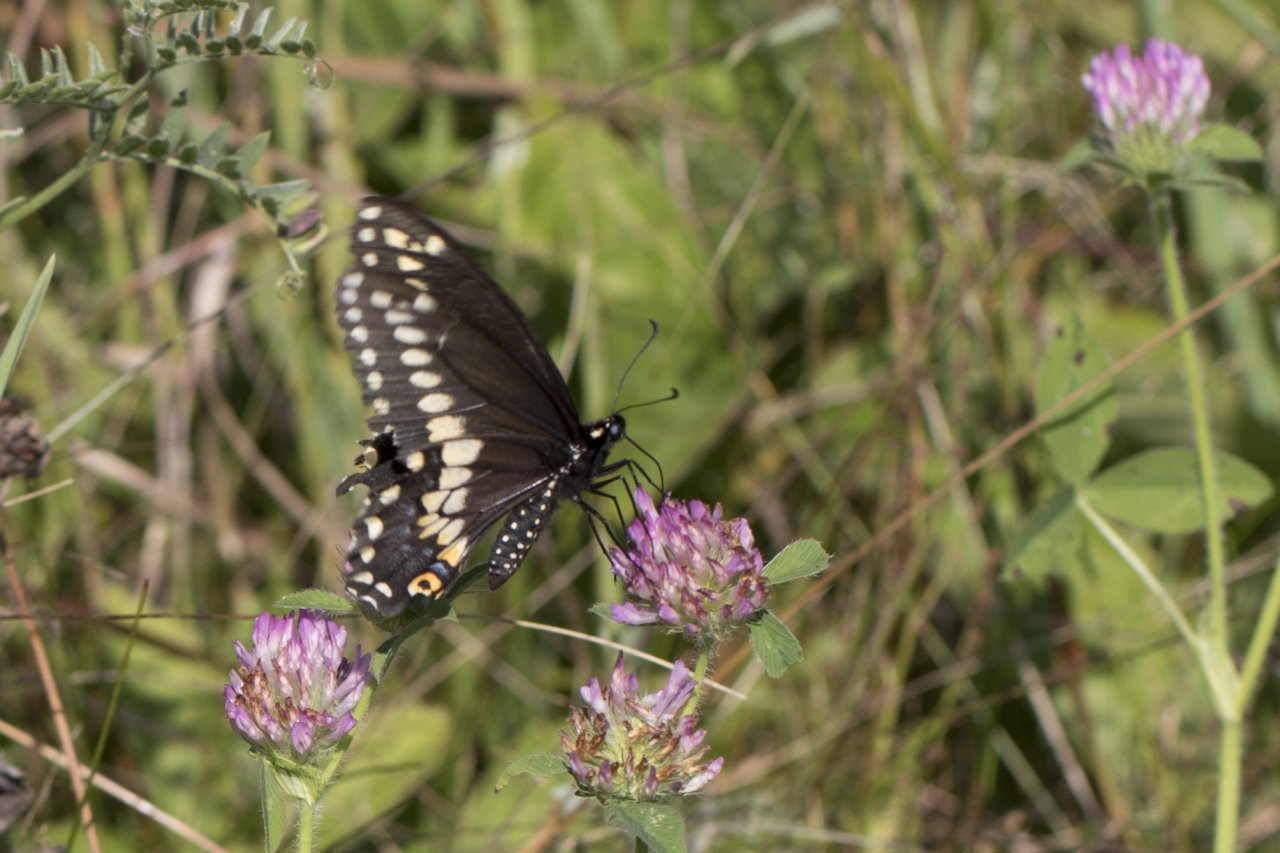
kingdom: Animalia
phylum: Arthropoda
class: Insecta
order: Lepidoptera
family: Papilionidae
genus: Papilio
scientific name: Papilio polyxenes
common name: Black Swallowtail
